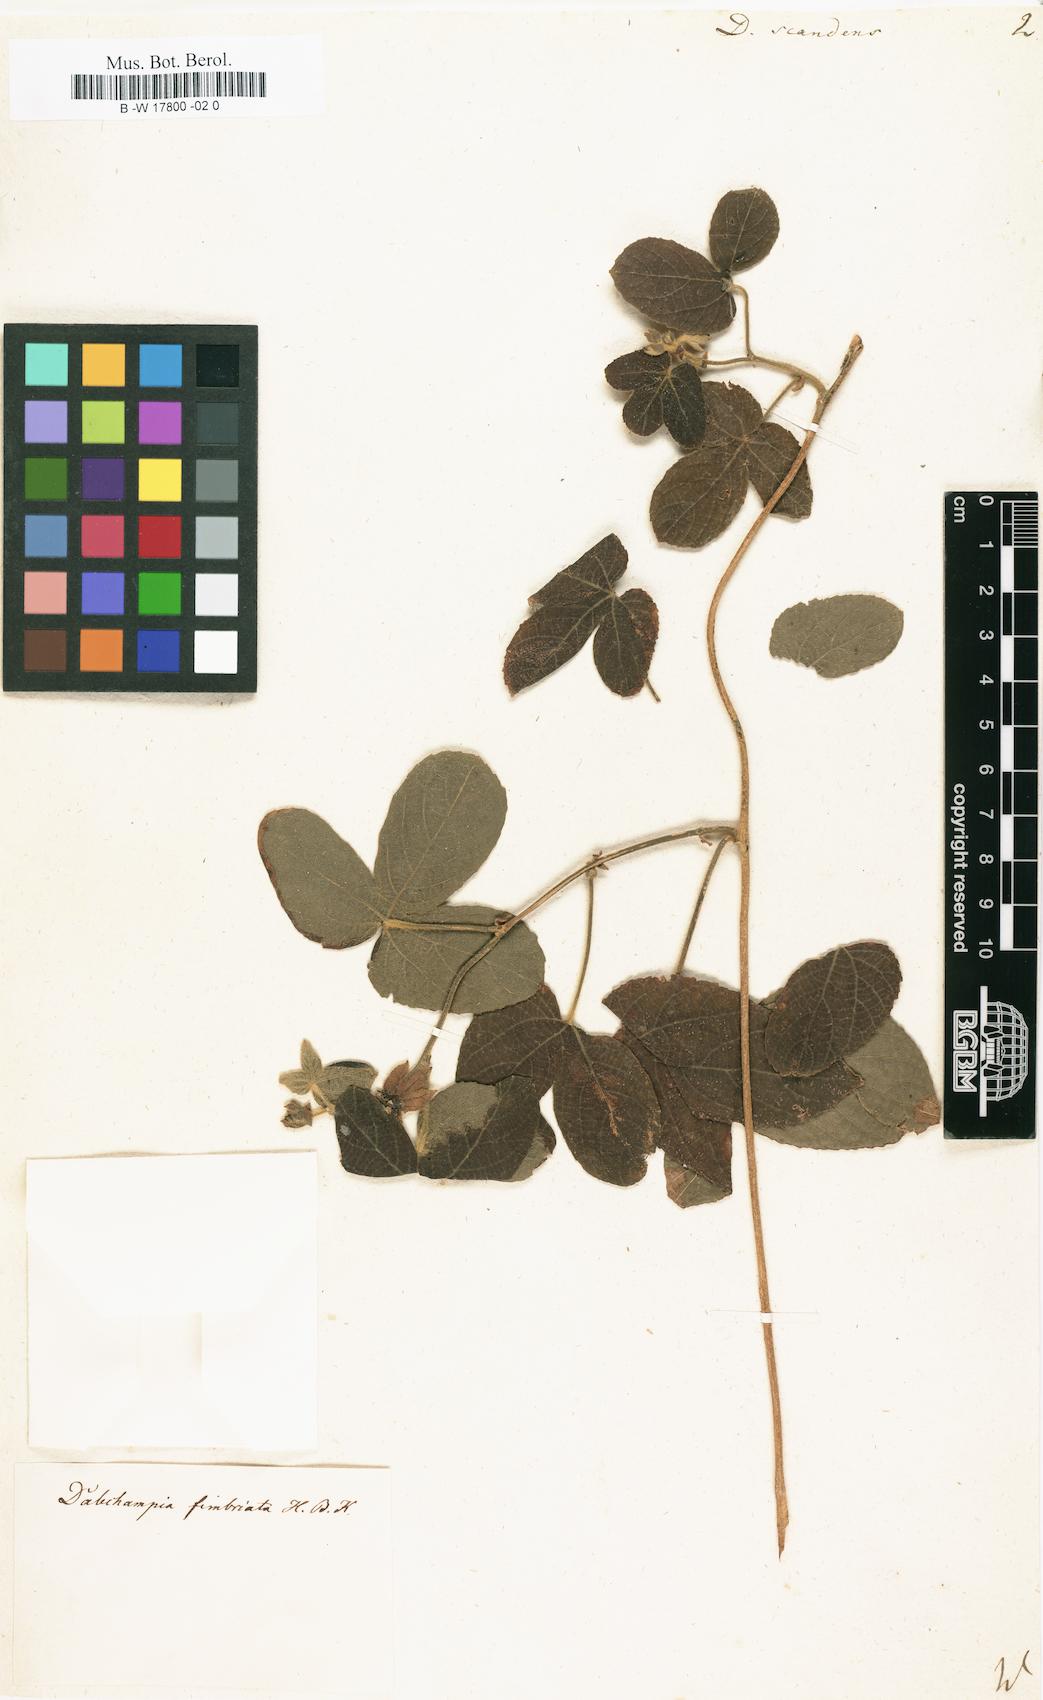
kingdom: Plantae
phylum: Tracheophyta
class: Magnoliopsida
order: Malpighiales
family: Euphorbiaceae
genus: Dalechampia
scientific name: Dalechampia scandens
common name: Spurgecreeper
